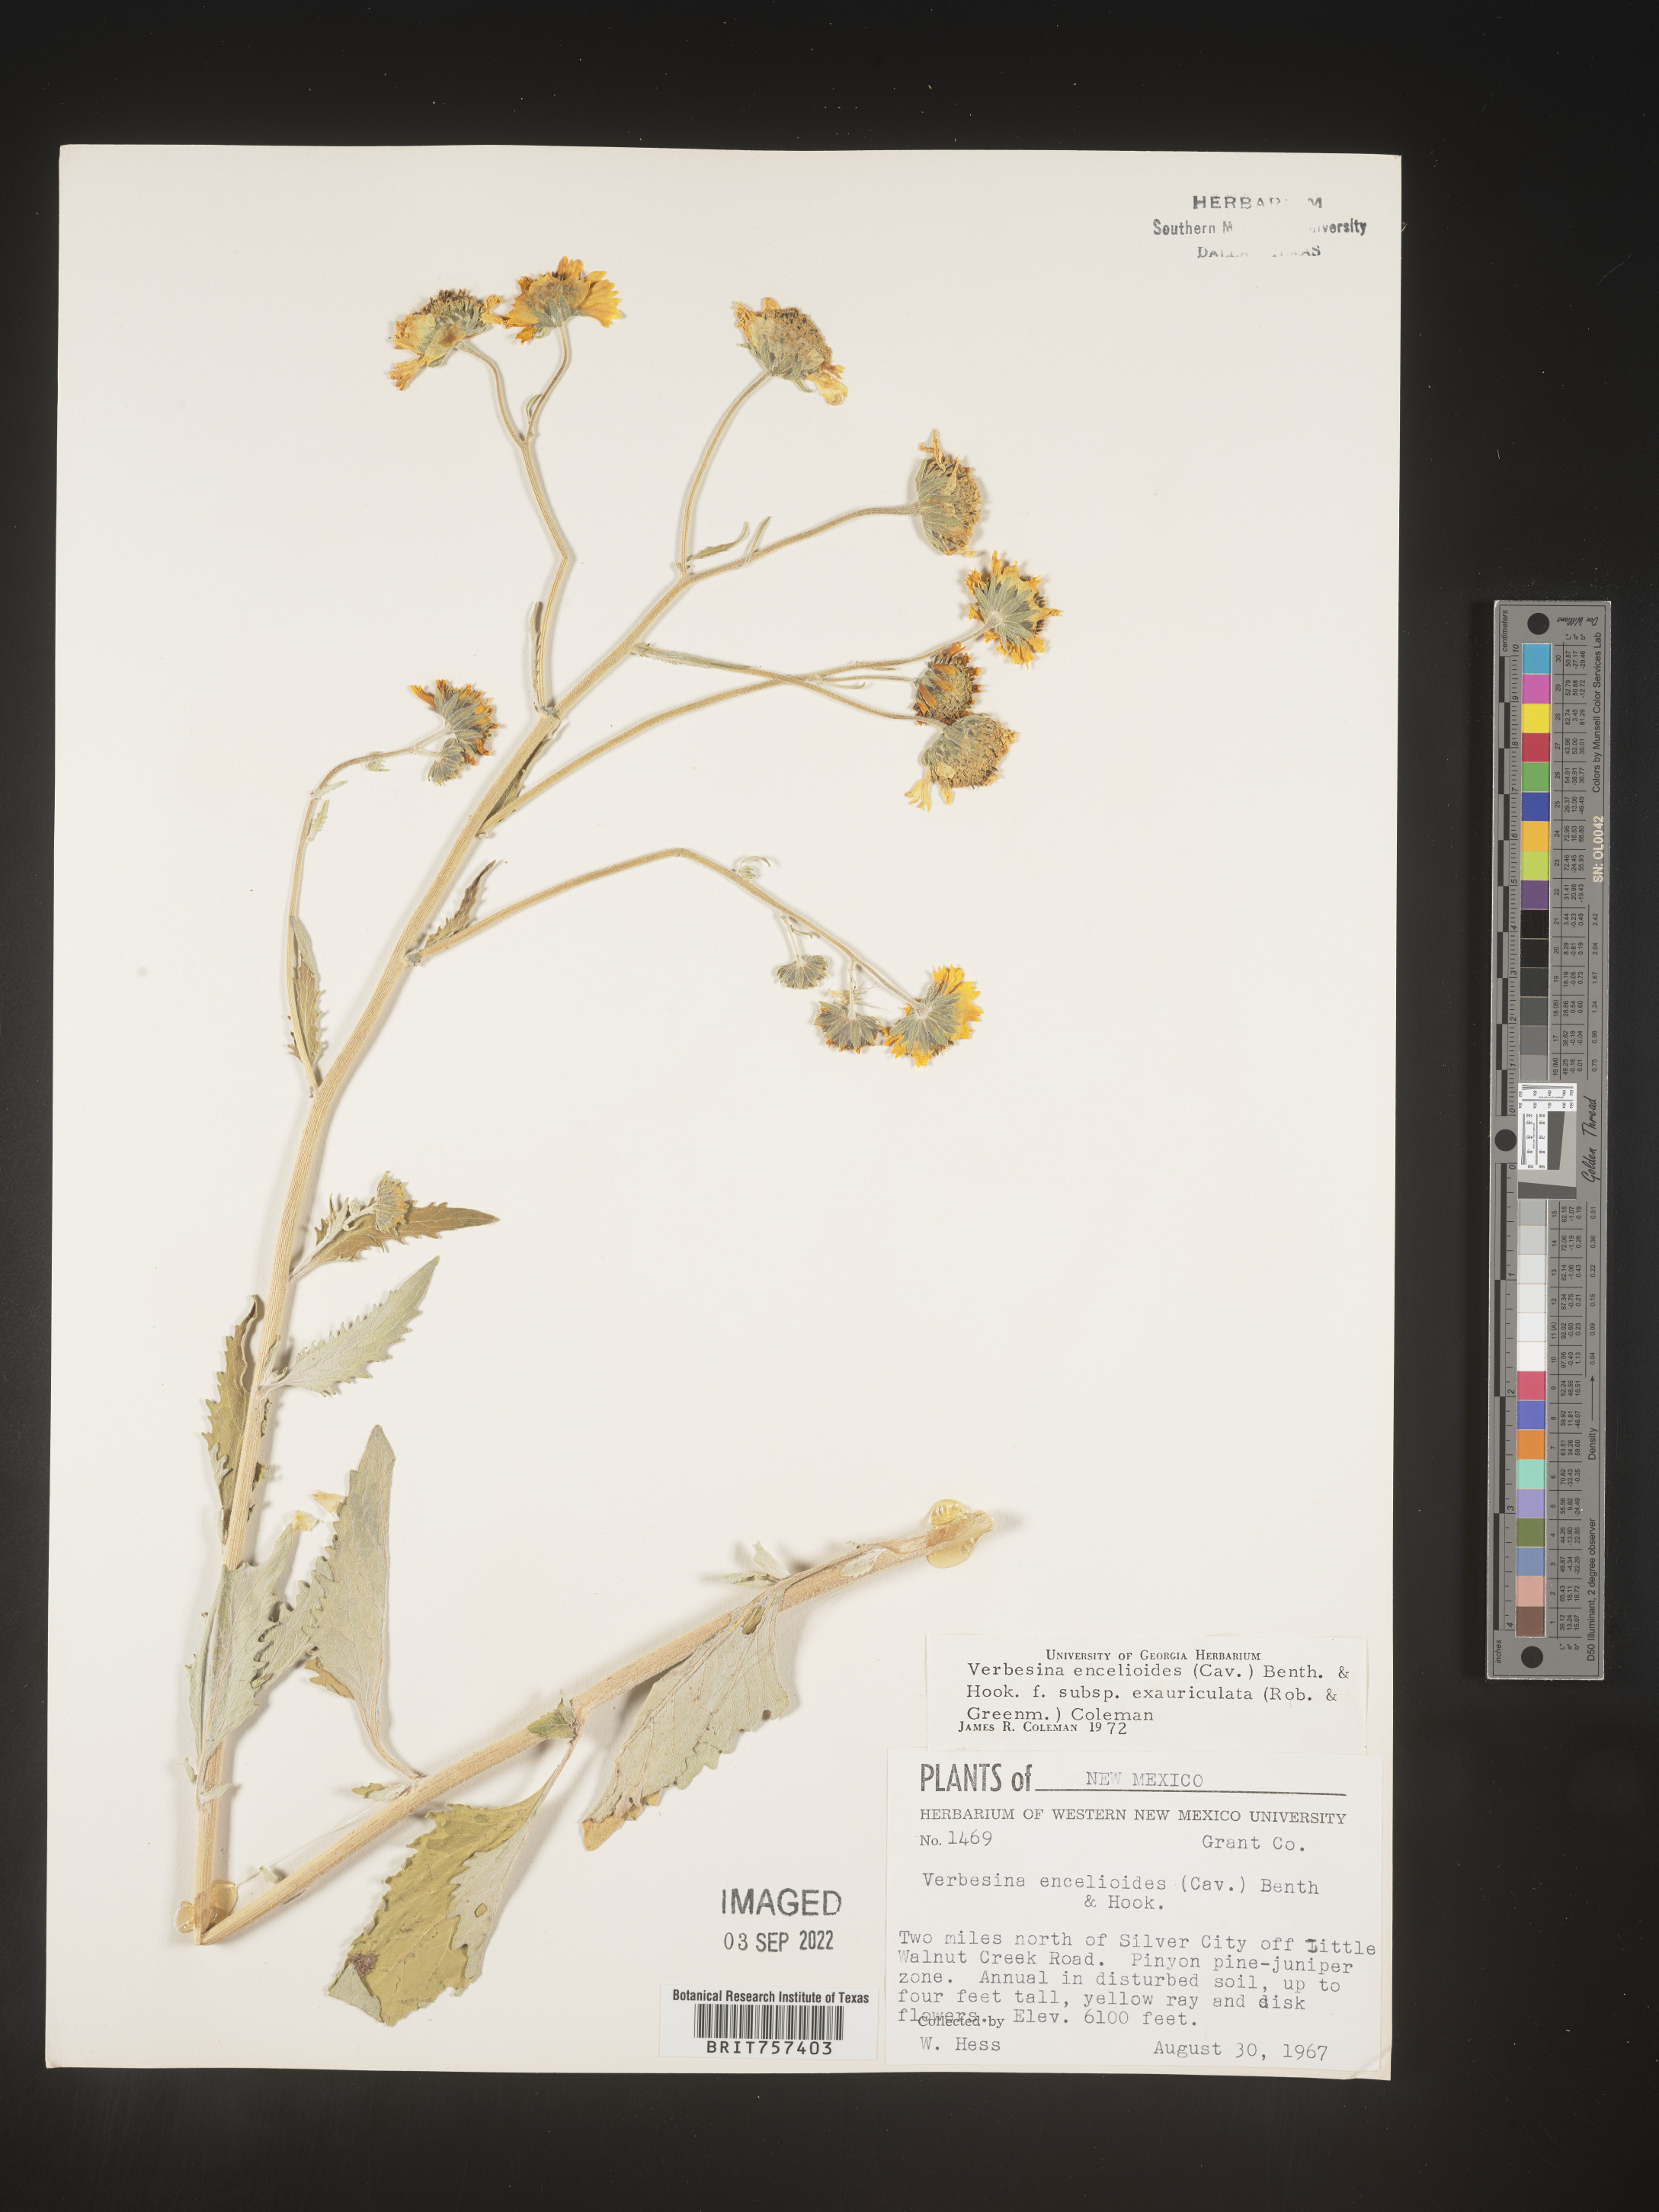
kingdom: Plantae
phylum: Tracheophyta
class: Magnoliopsida
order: Asterales
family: Asteraceae
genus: Verbesina
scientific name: Verbesina encelioides
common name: Golden crownbeard
